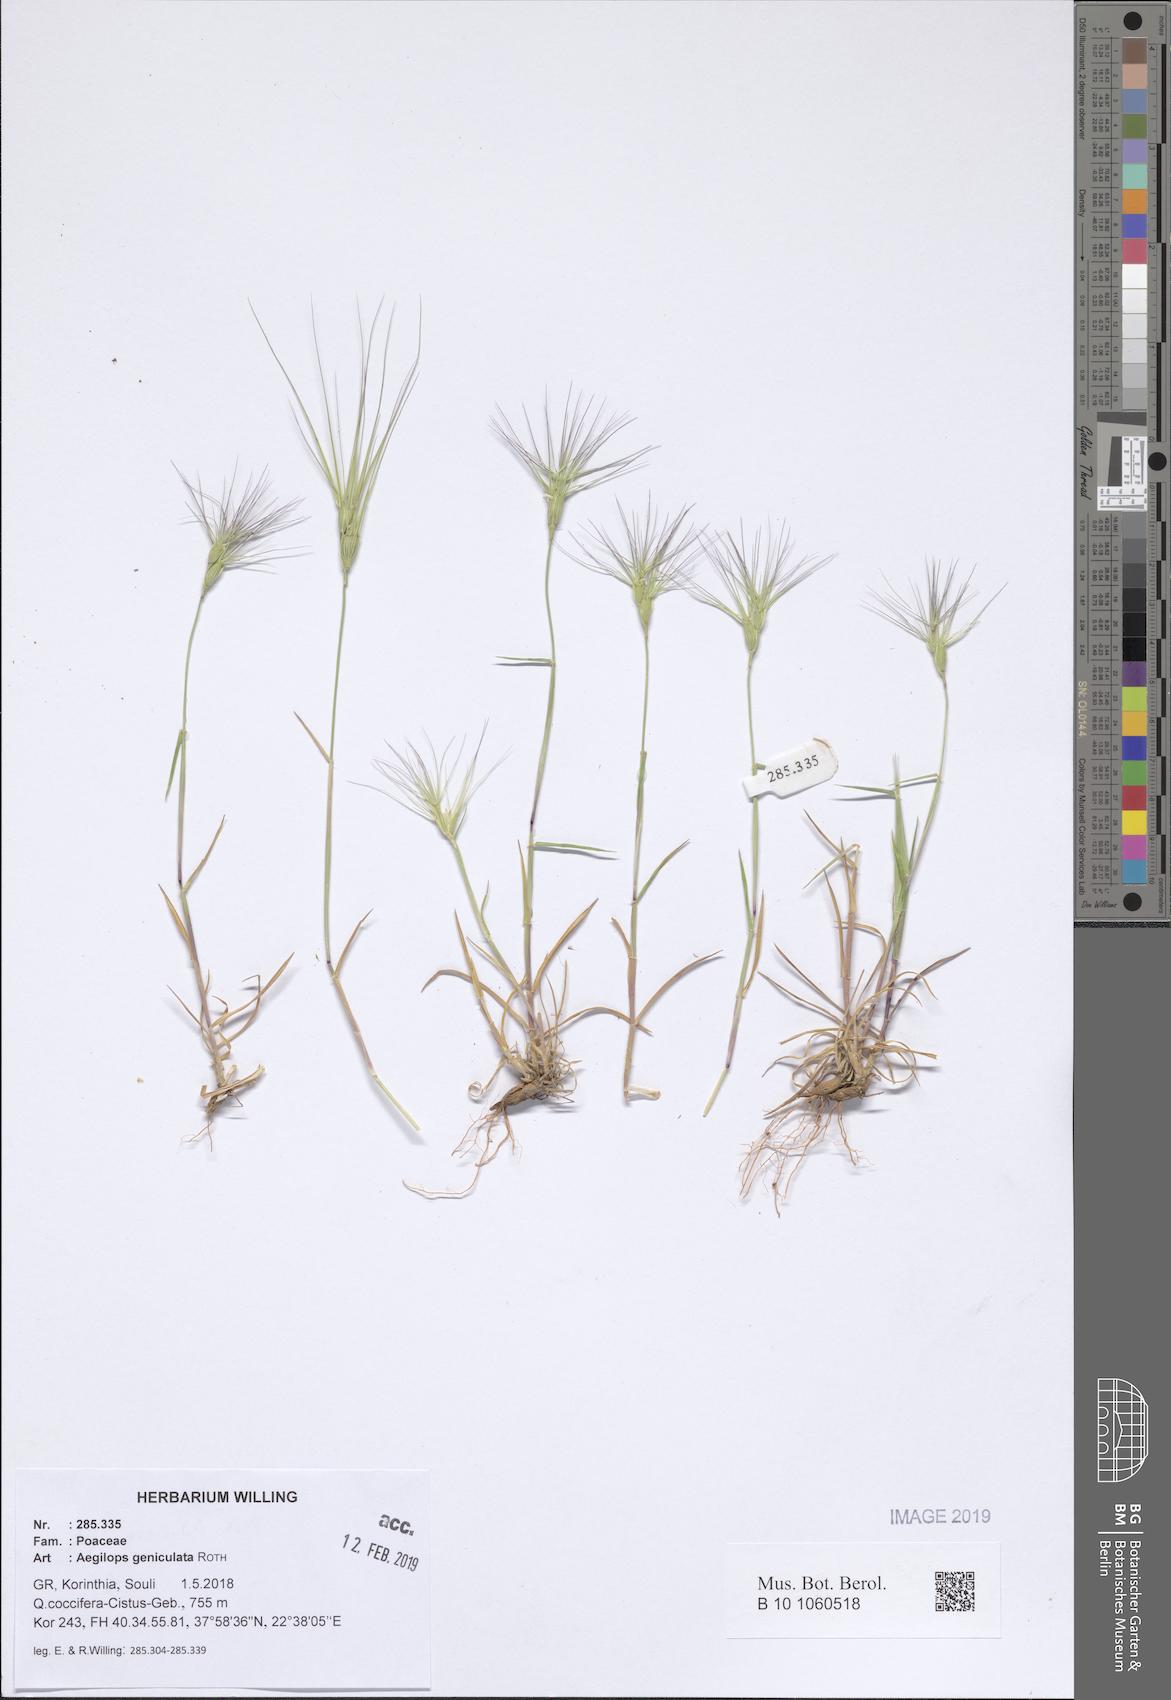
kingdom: Plantae
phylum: Tracheophyta
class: Liliopsida
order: Poales
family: Poaceae
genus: Aegilops
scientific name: Aegilops geniculata
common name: Ovate goat grass
